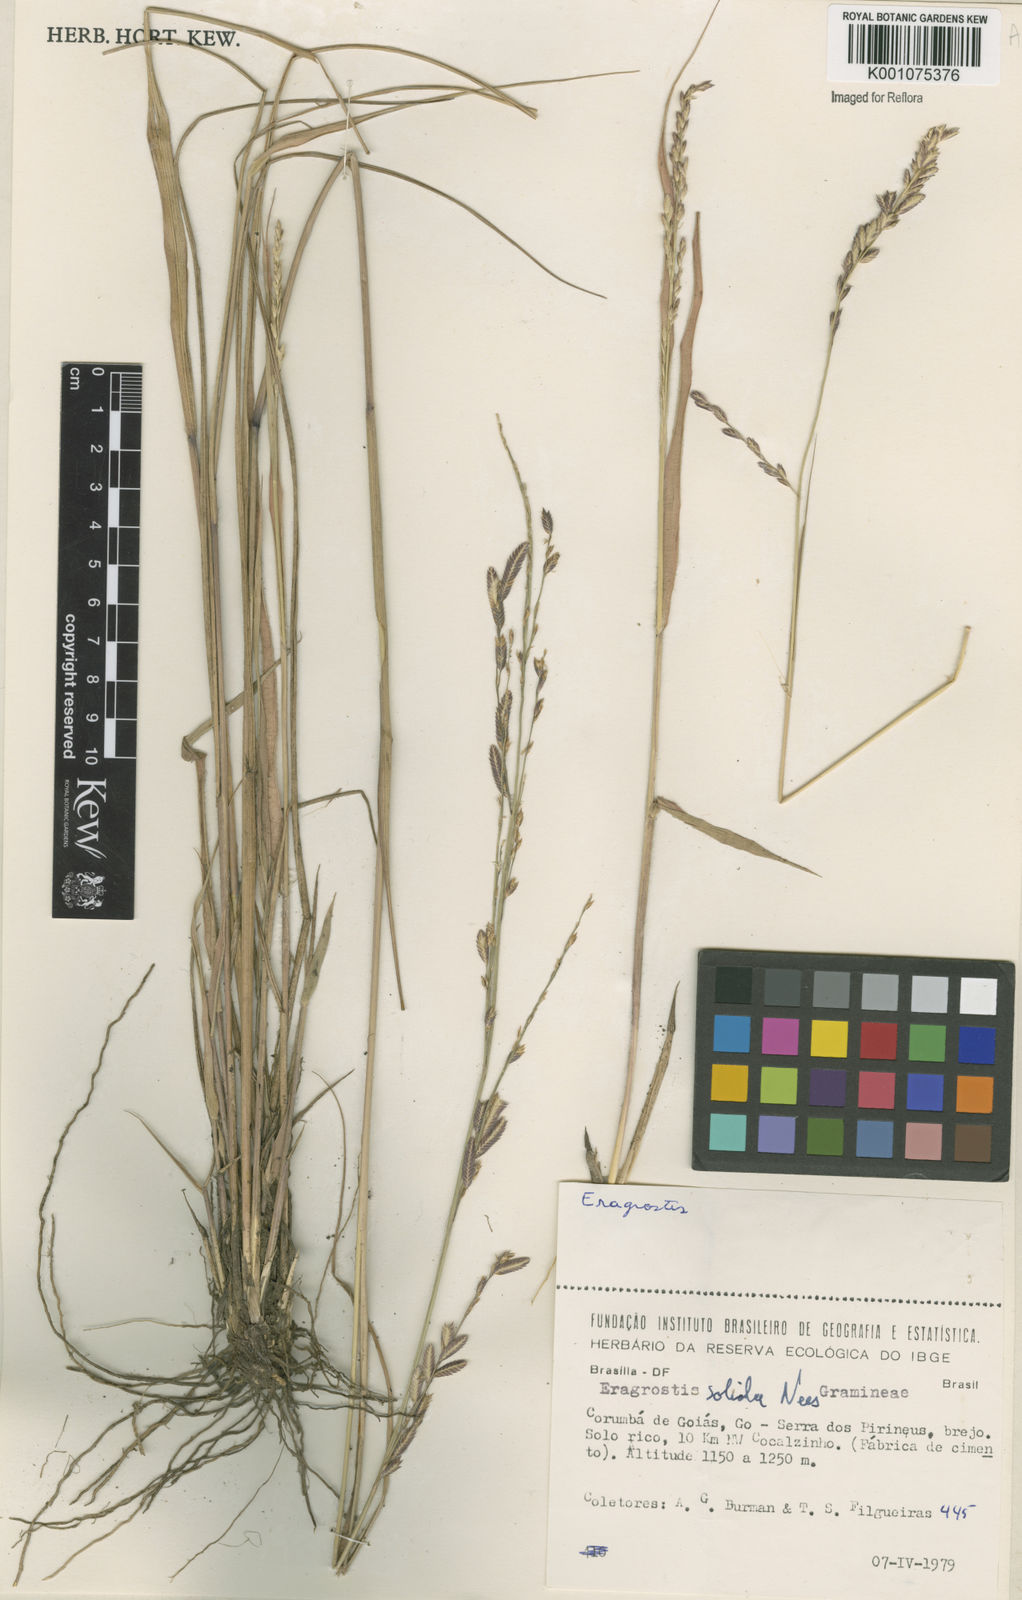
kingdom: Plantae
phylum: Tracheophyta
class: Liliopsida
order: Poales
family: Poaceae
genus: Eragrostis
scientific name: Eragrostis solida
